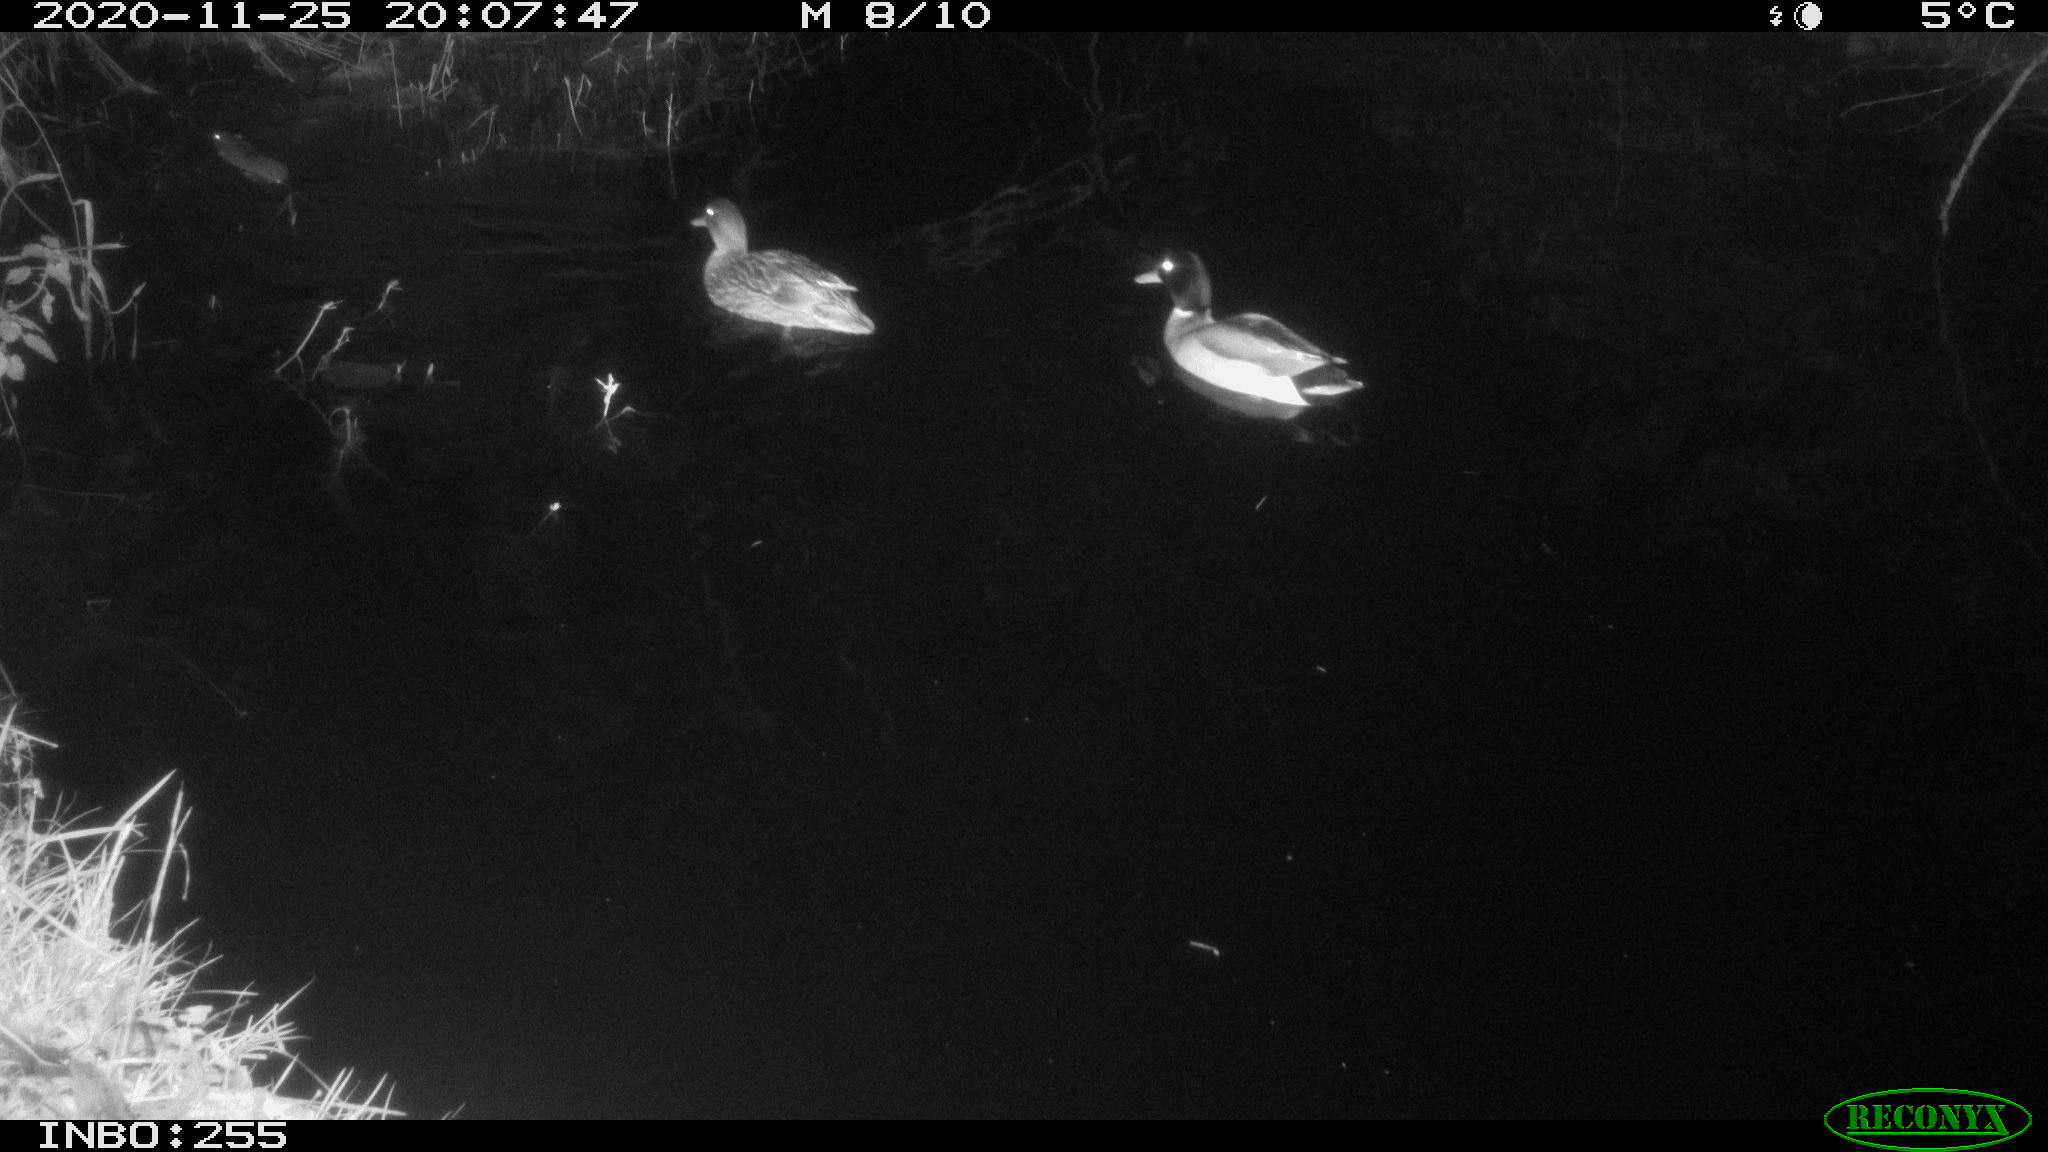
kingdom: Animalia
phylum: Chordata
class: Aves
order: Anseriformes
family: Anatidae
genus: Anas
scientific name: Anas platyrhynchos
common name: Mallard
